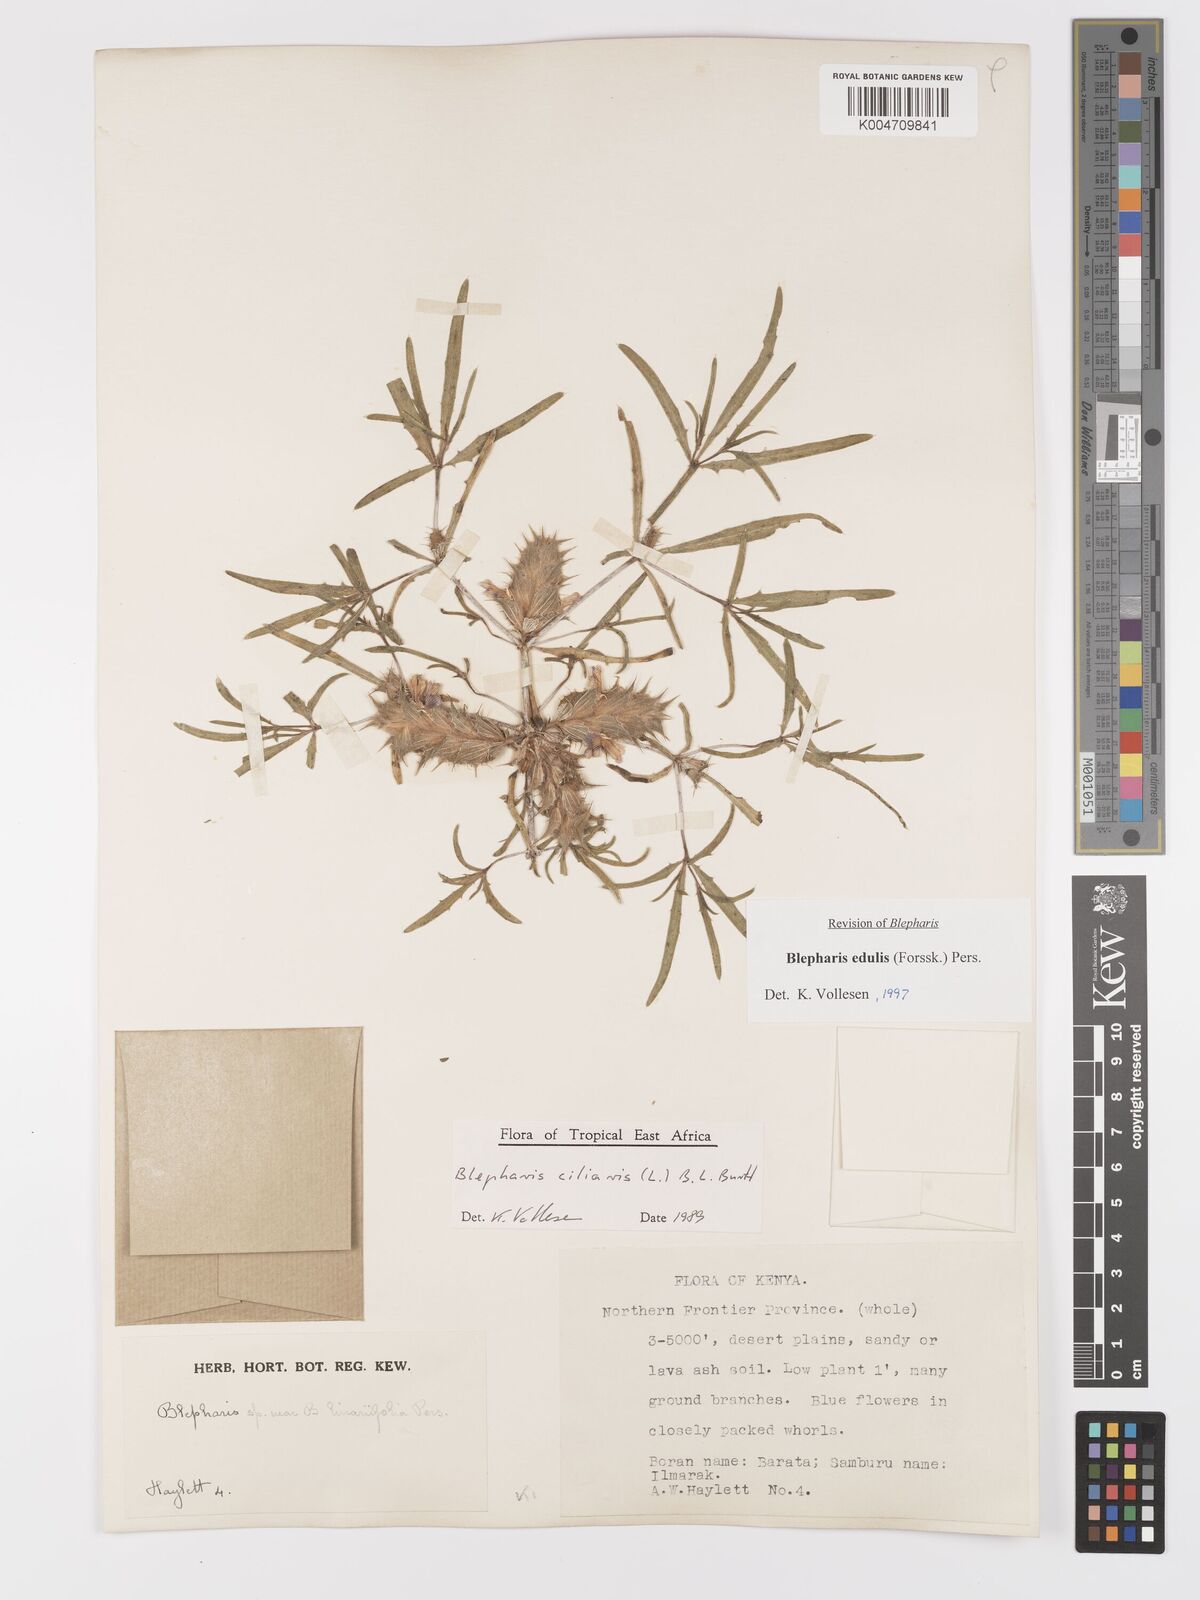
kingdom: Plantae
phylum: Tracheophyta
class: Magnoliopsida
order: Lamiales
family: Acanthaceae
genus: Blepharis
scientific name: Blepharis edulis
